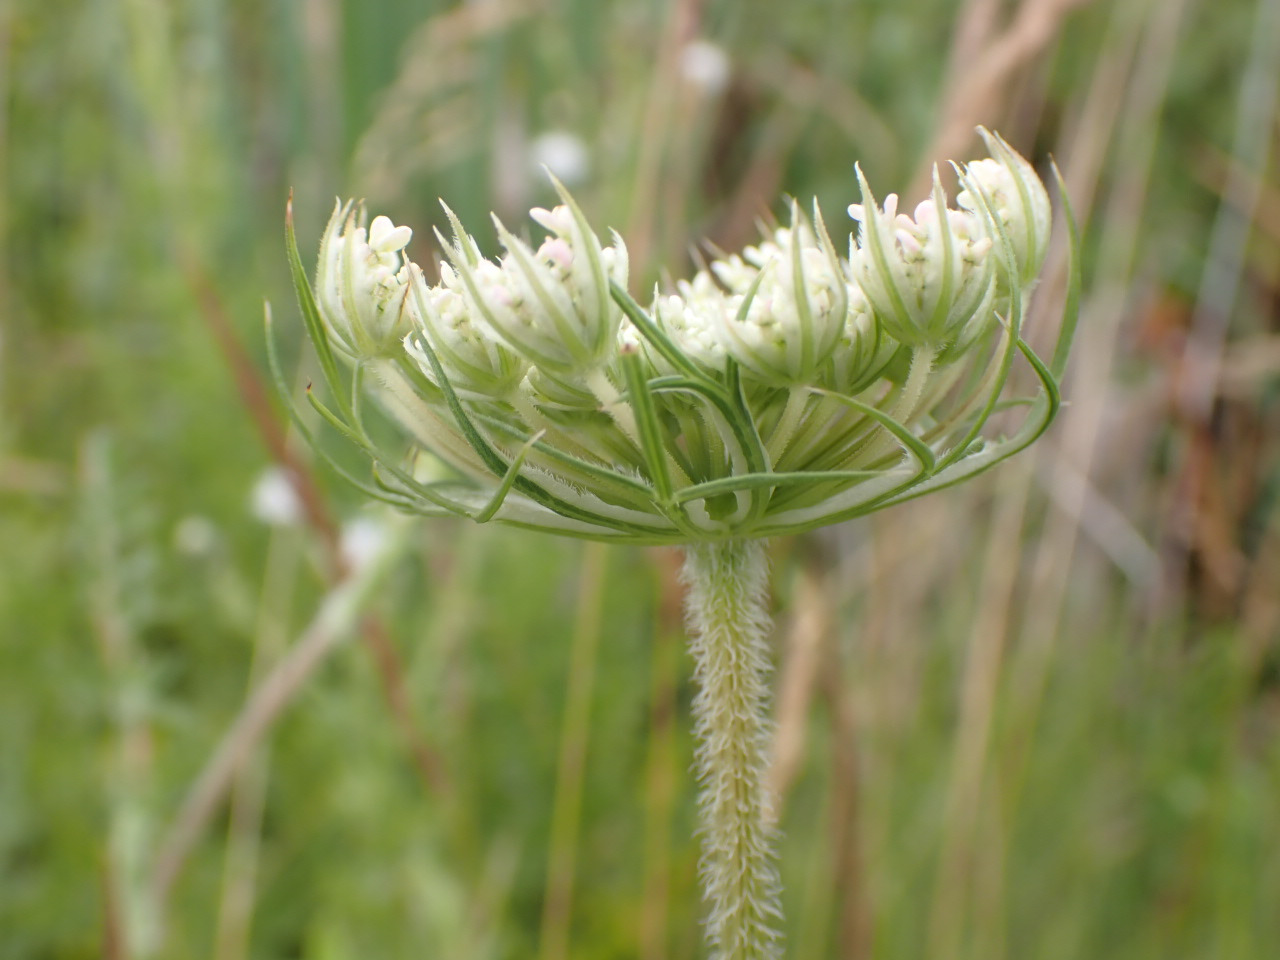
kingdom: Plantae
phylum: Tracheophyta
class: Magnoliopsida
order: Apiales
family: Apiaceae
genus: Daucus
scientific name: Daucus carota
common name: Gulerod
